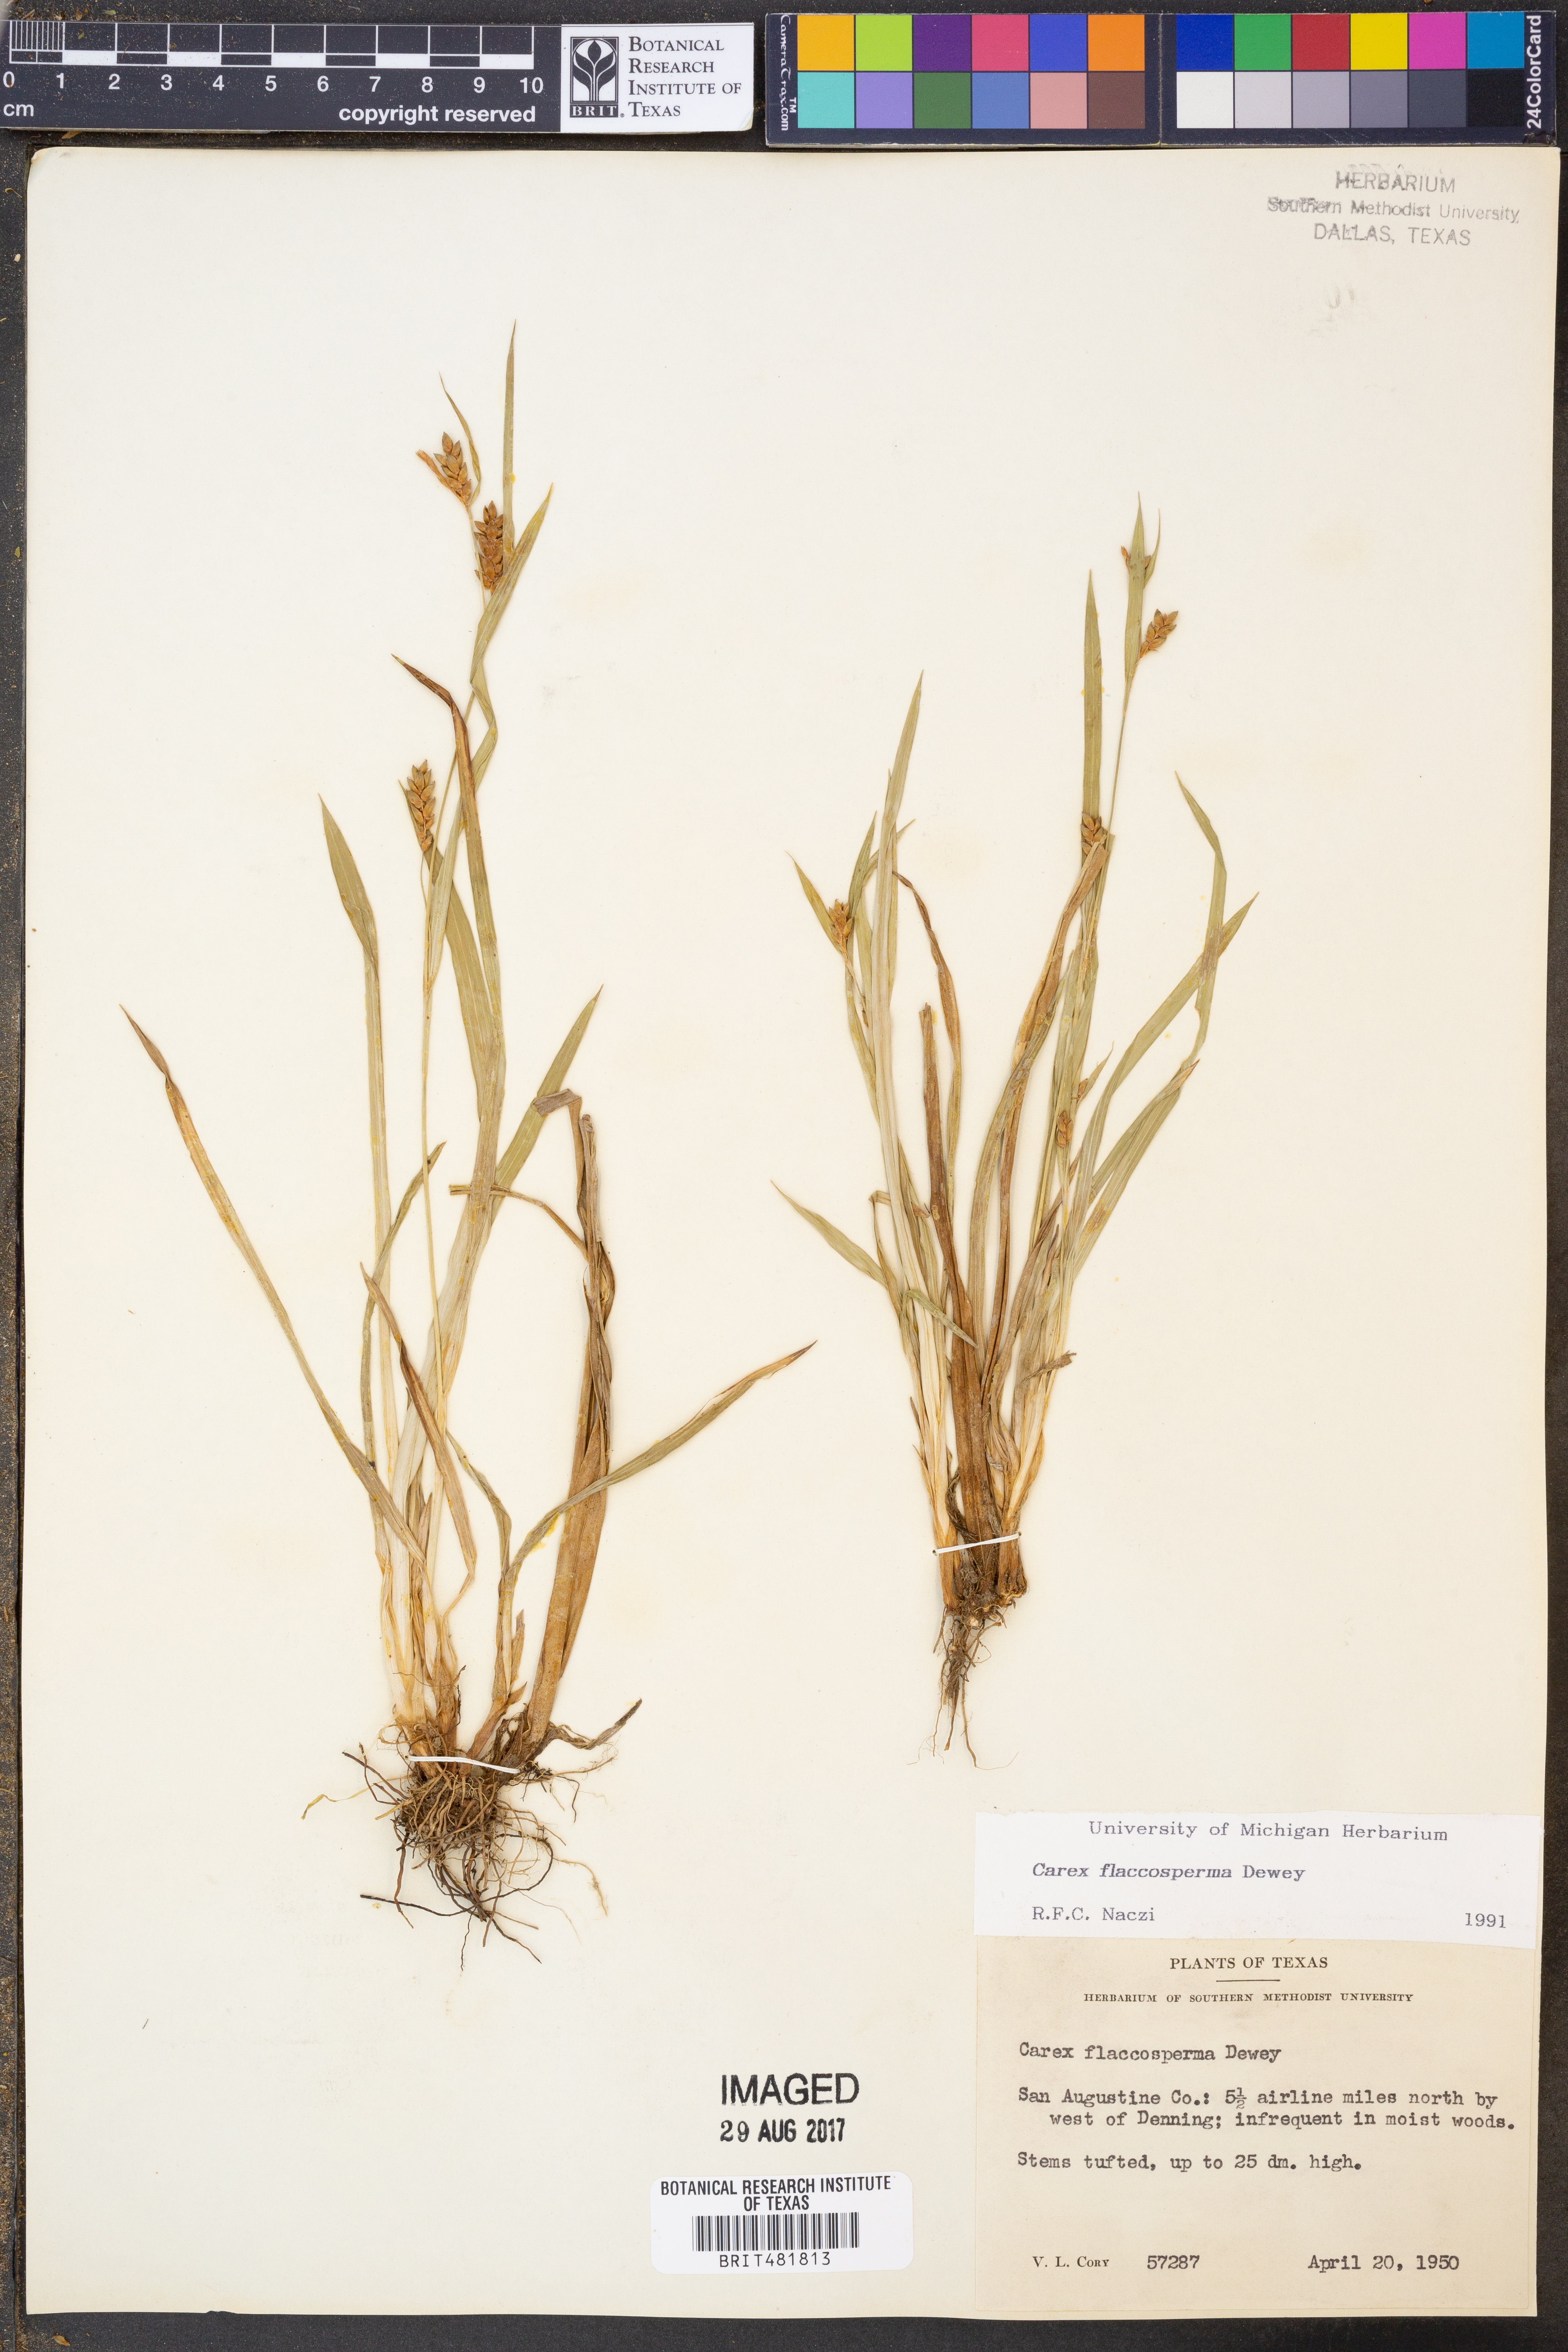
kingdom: Plantae
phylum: Tracheophyta
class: Liliopsida
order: Poales
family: Cyperaceae
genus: Carex
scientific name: Carex flaccosperma
